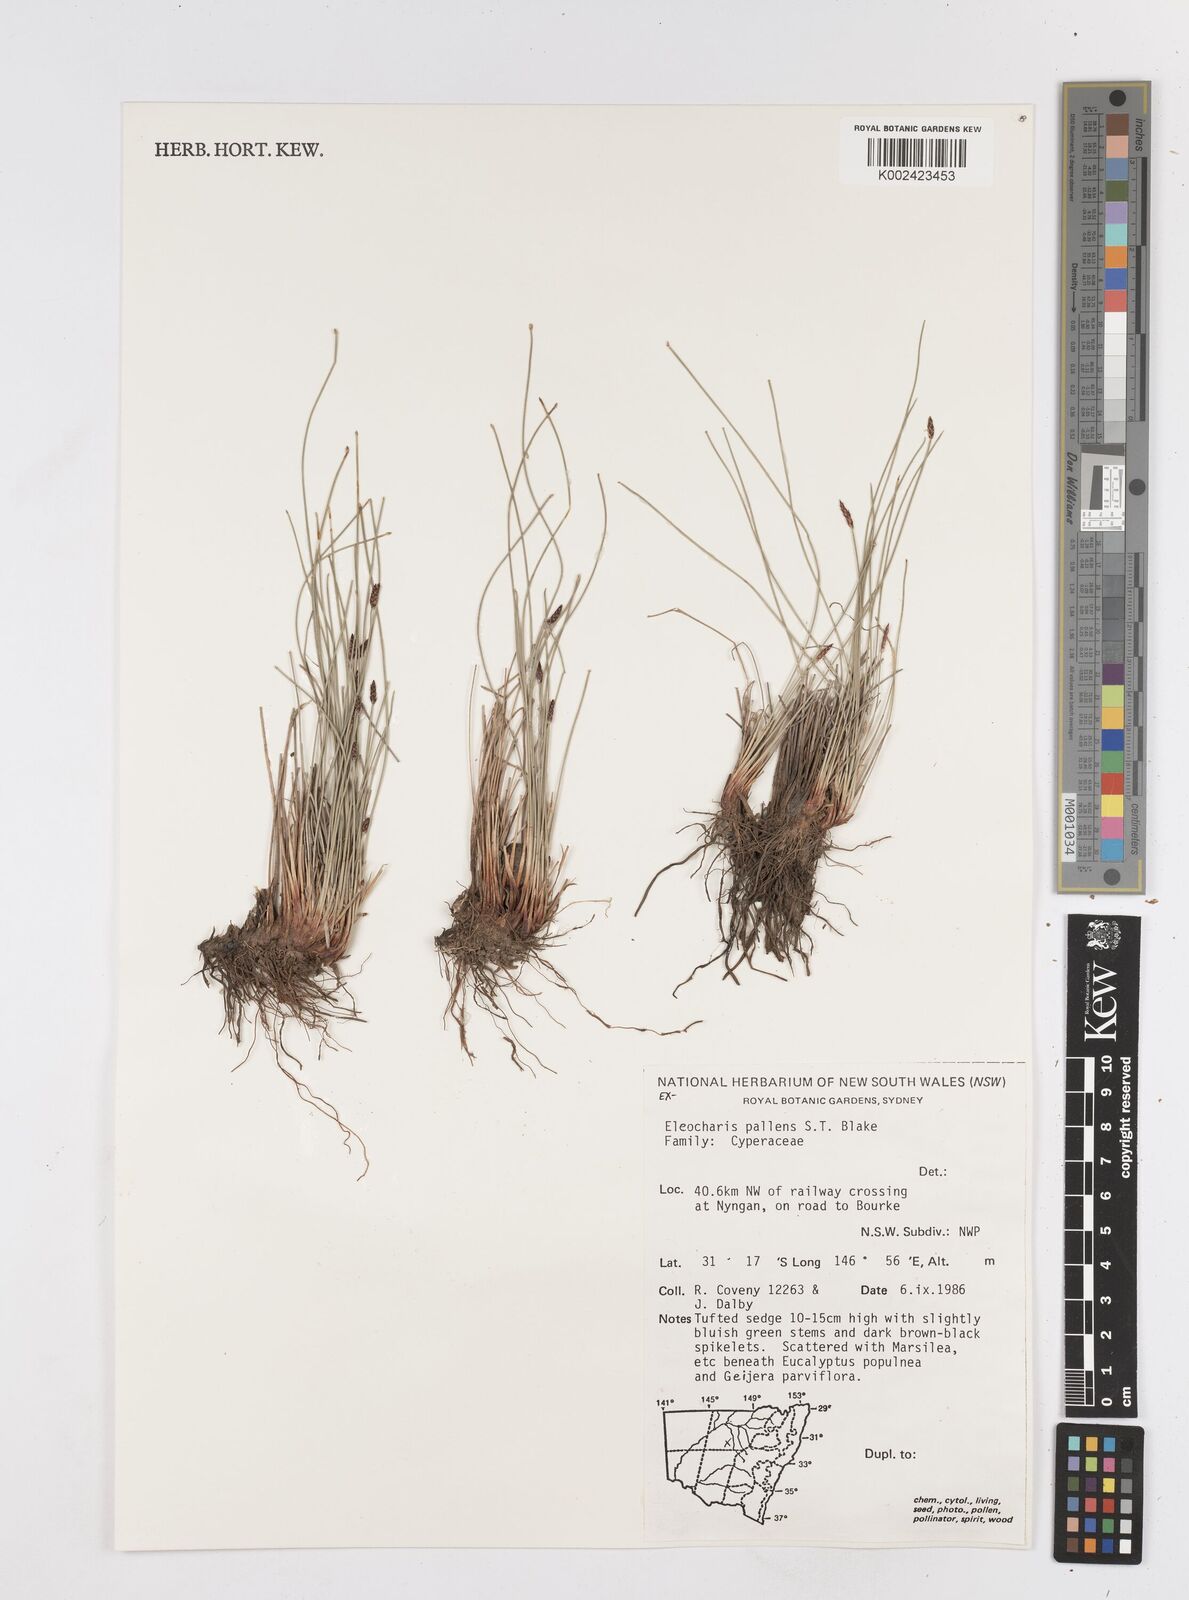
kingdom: Plantae
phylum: Tracheophyta
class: Liliopsida
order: Poales
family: Cyperaceae
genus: Eleocharis
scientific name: Eleocharis acuta
